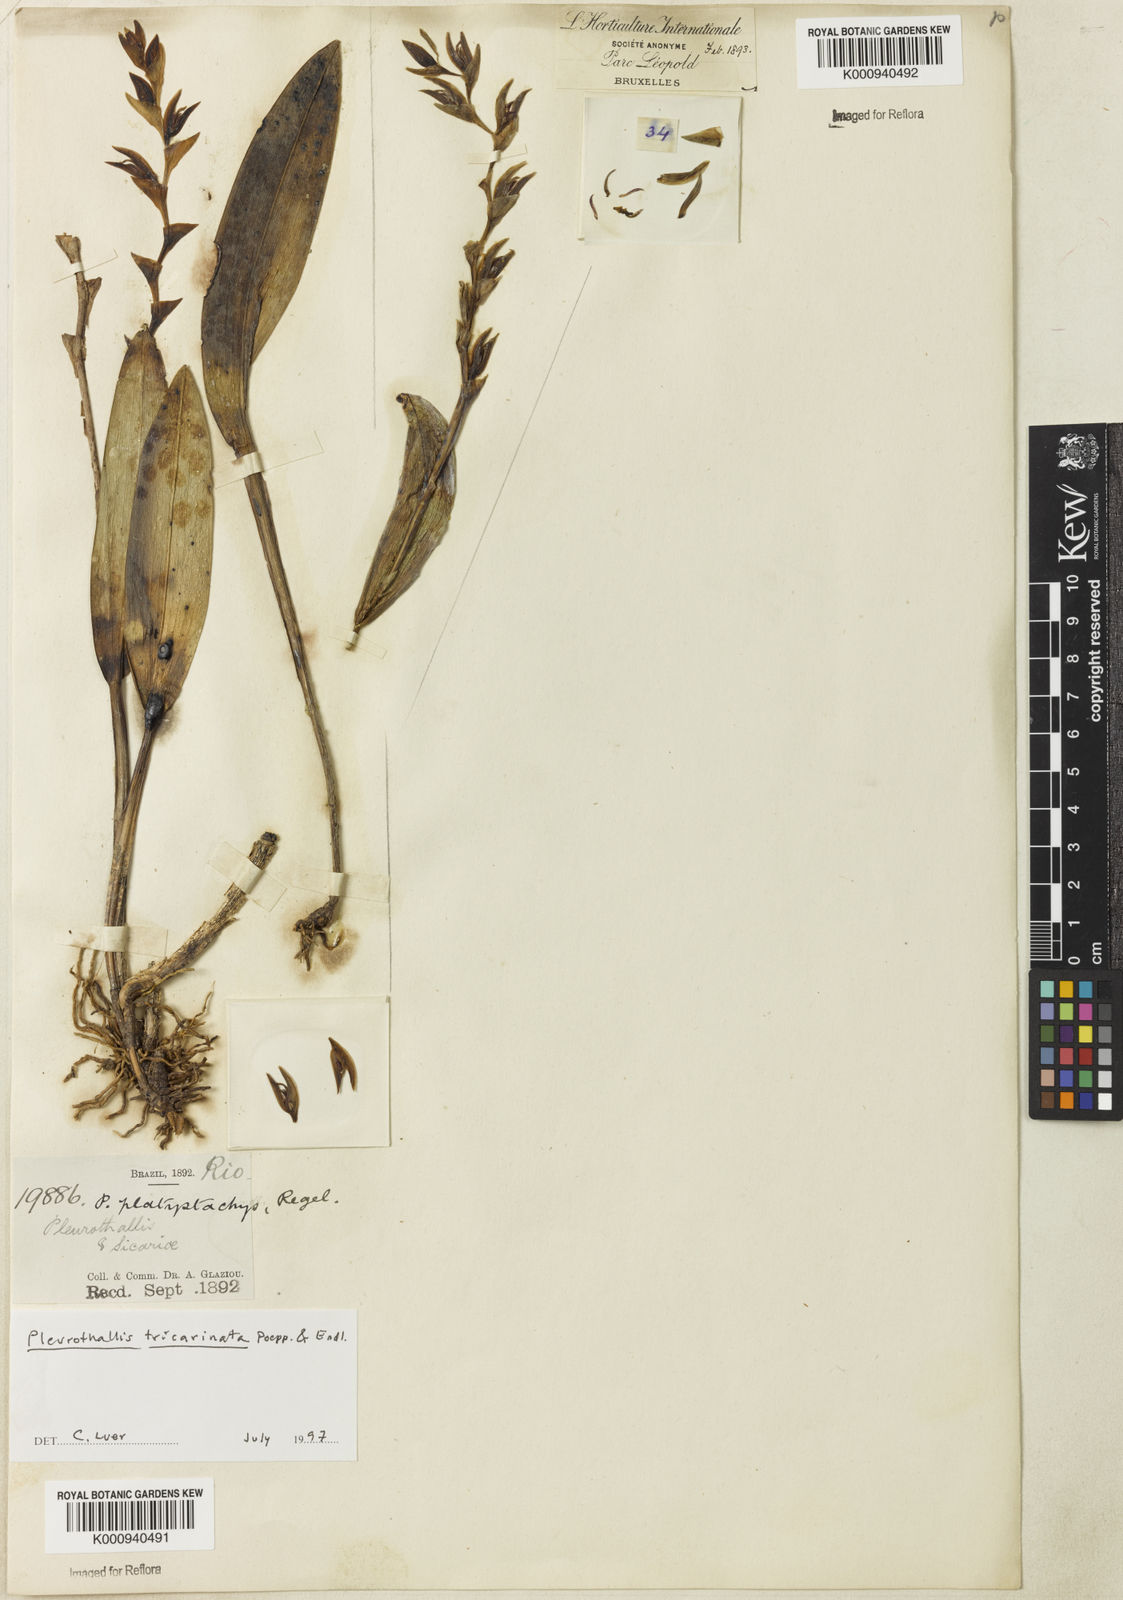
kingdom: Plantae
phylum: Tracheophyta
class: Liliopsida
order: Asparagales
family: Orchidaceae
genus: Acianthera
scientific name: Acianthera tricarinata
